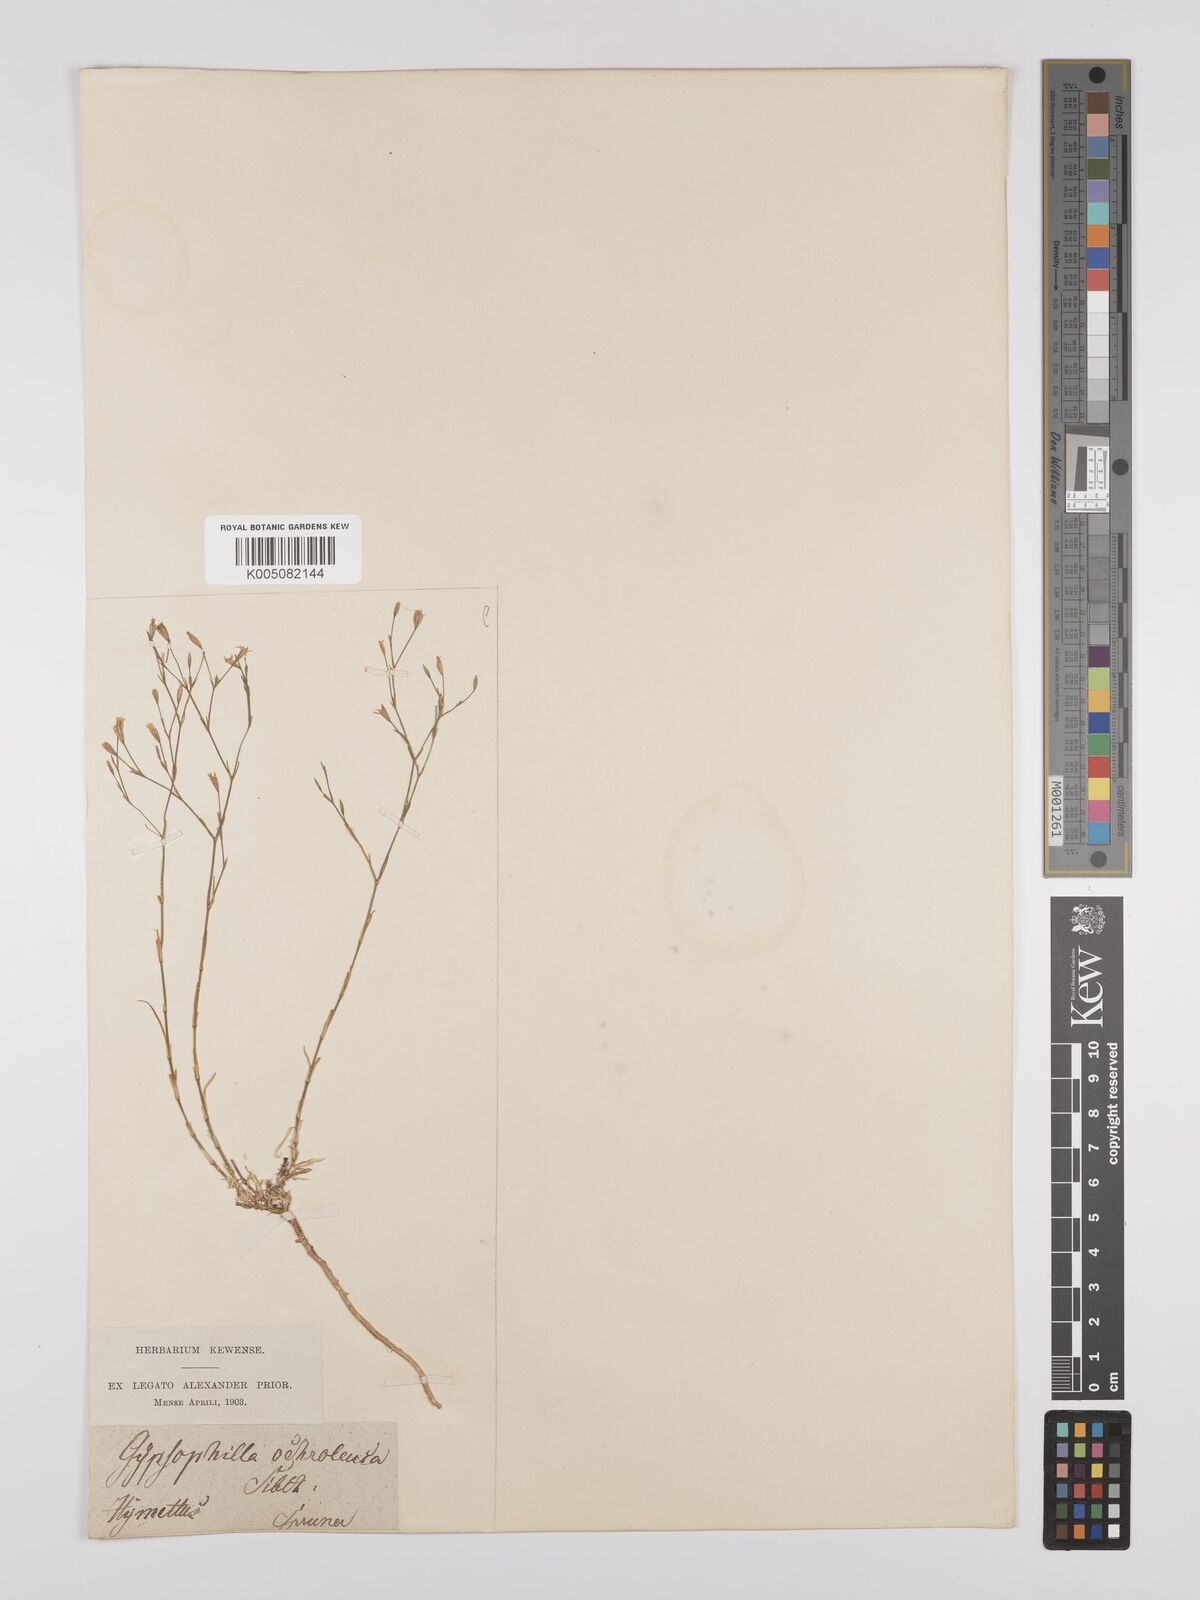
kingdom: Plantae
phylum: Tracheophyta
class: Magnoliopsida
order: Caryophyllales
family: Caryophyllaceae
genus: Petrorhagia
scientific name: Petrorhagia ochroleuca
